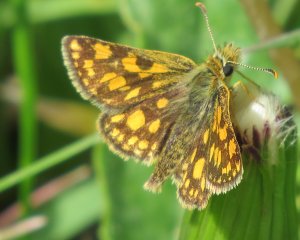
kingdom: Animalia
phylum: Arthropoda
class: Insecta
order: Lepidoptera
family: Hesperiidae
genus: Carterocephalus
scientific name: Carterocephalus palaemon
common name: Chequered Skipper
